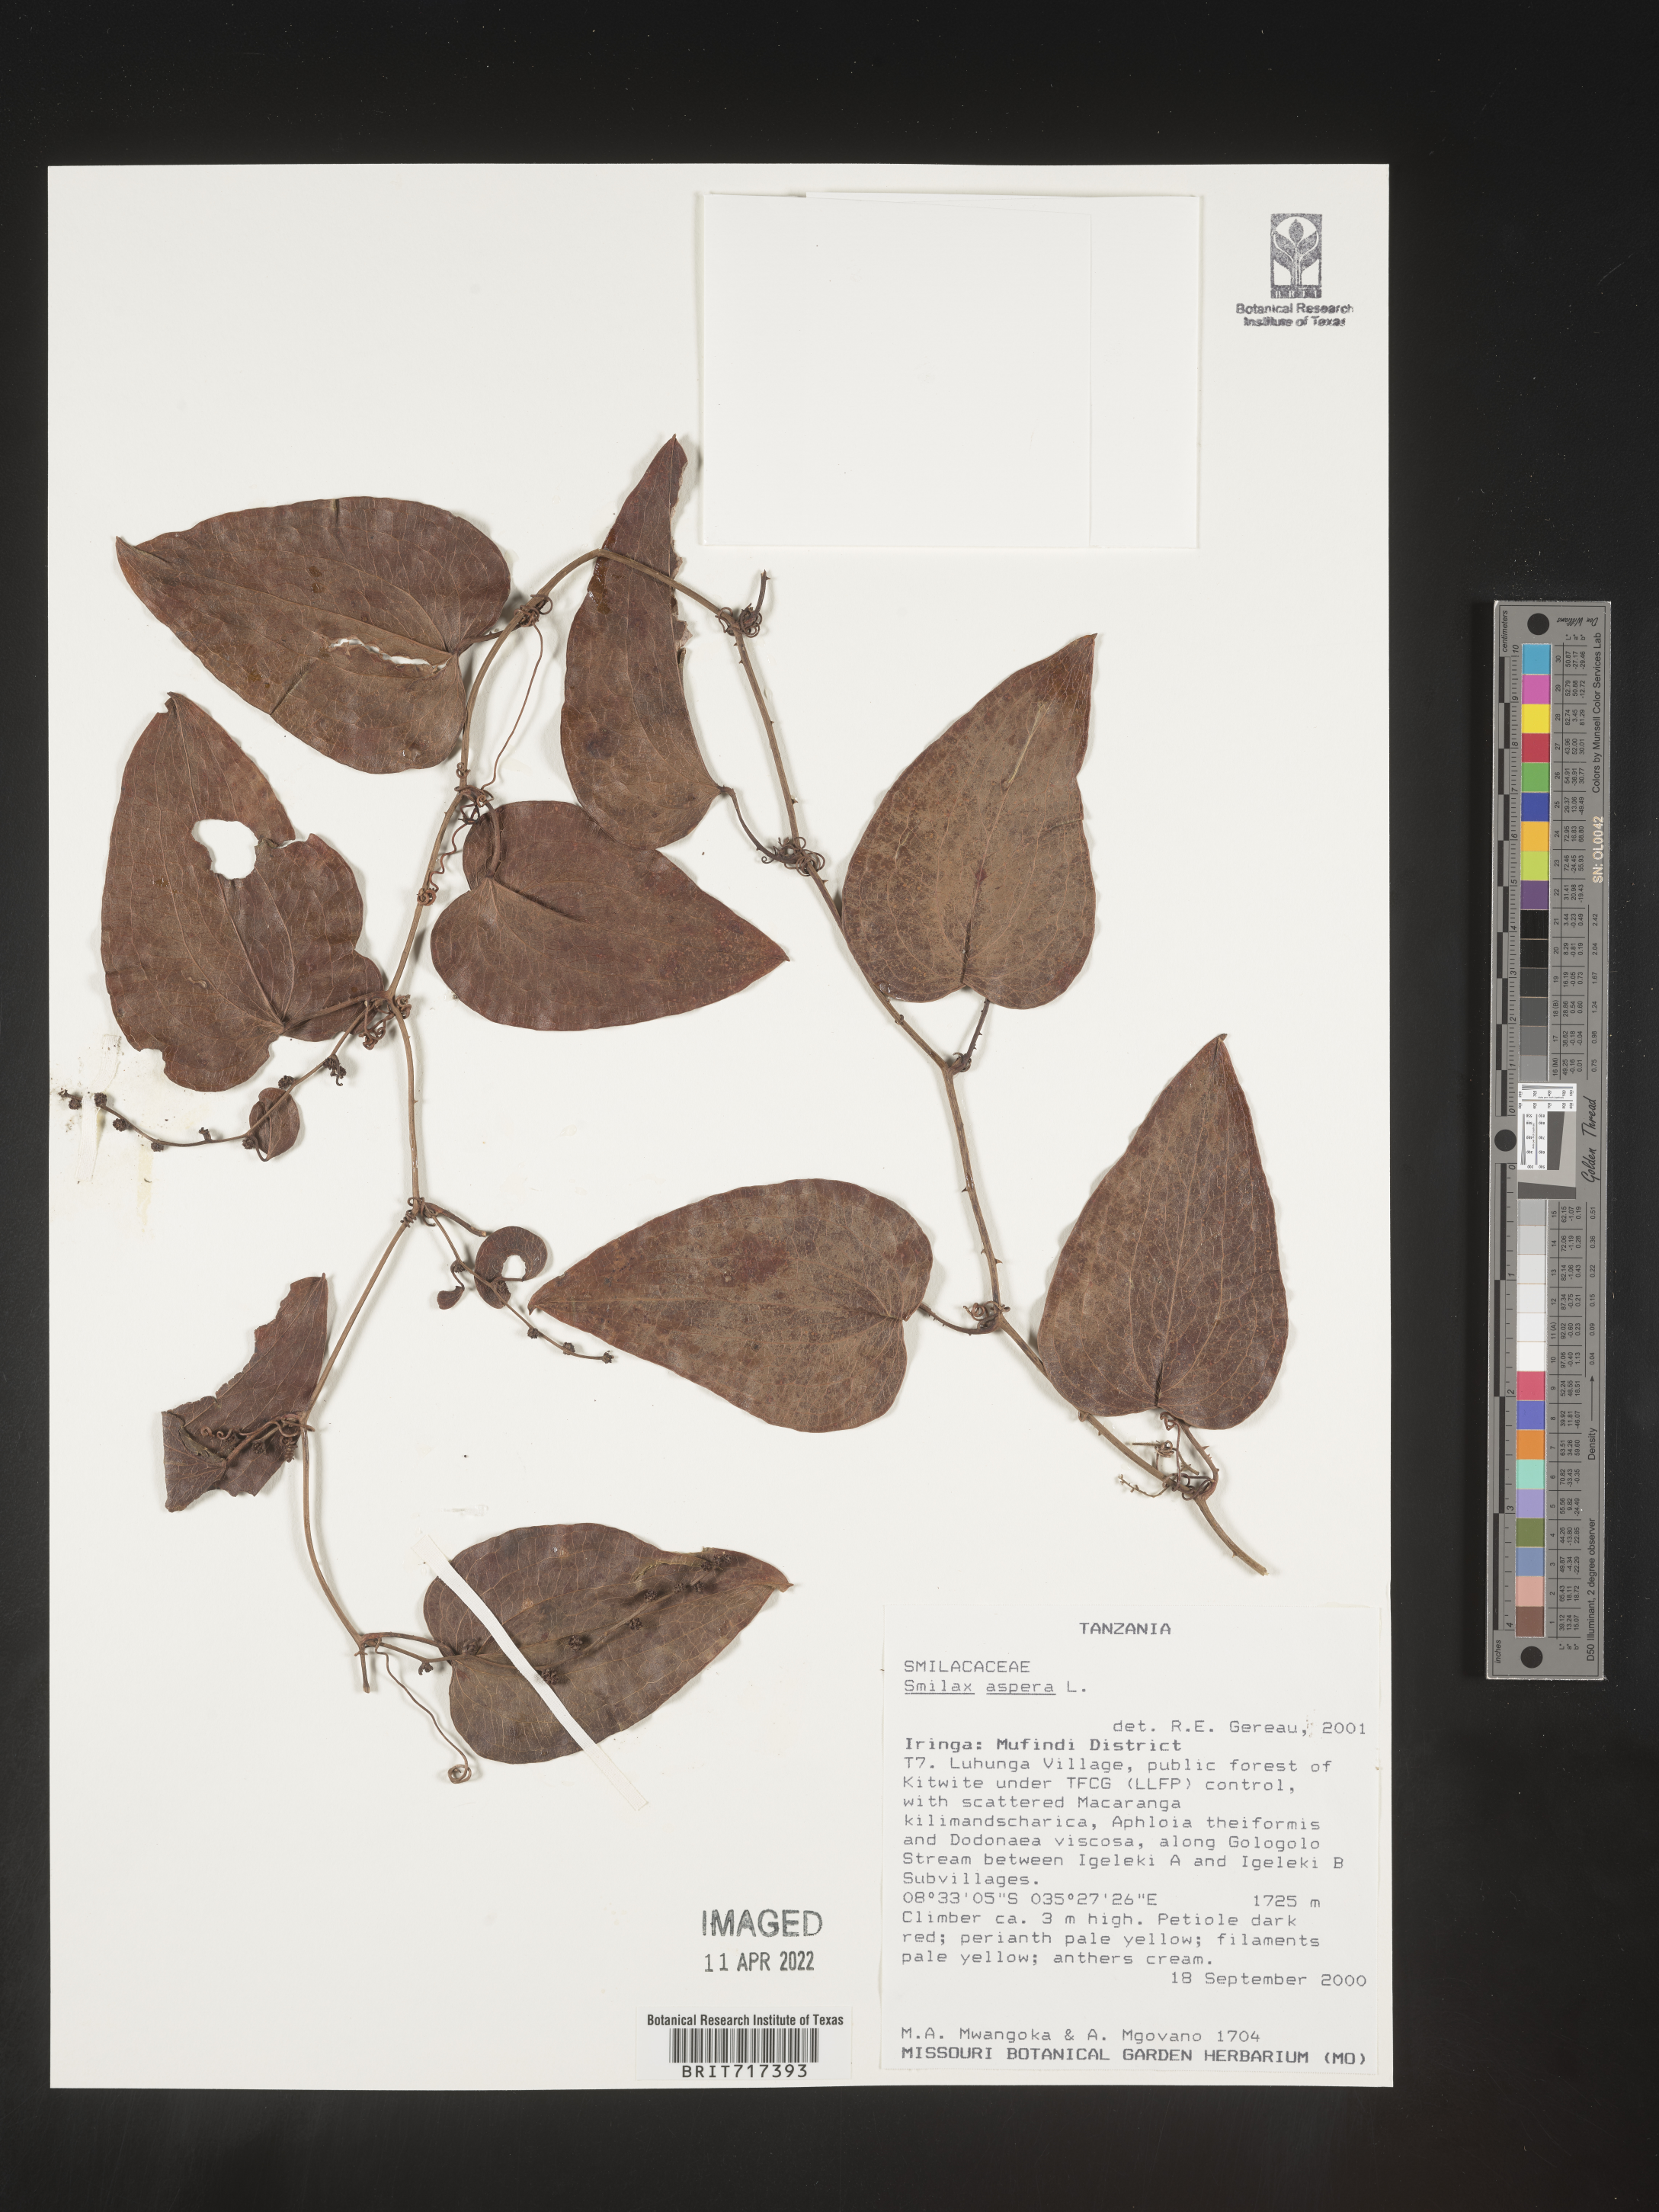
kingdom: Plantae
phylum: Tracheophyta
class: Liliopsida
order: Liliales
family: Smilacaceae
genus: Smilax
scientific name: Smilax
